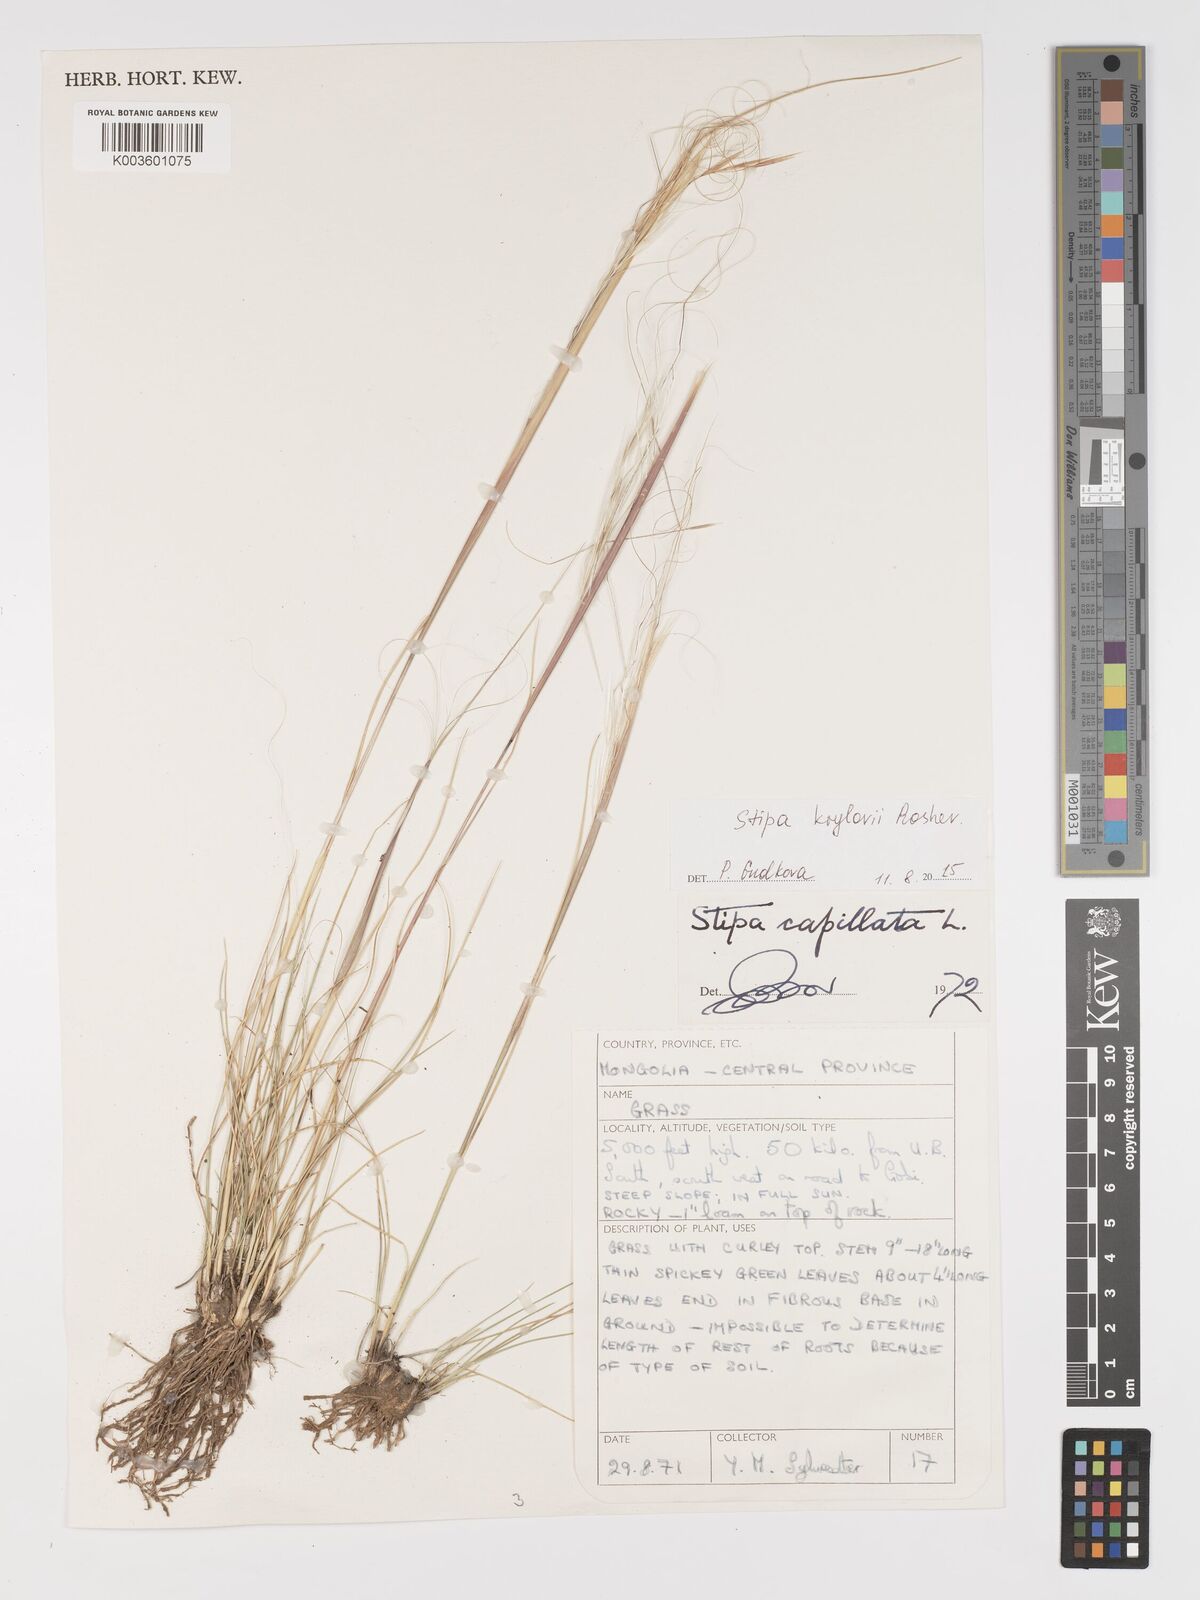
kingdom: Plantae
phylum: Tracheophyta
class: Liliopsida
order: Poales
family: Poaceae
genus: Stipa
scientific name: Stipa krylovii
